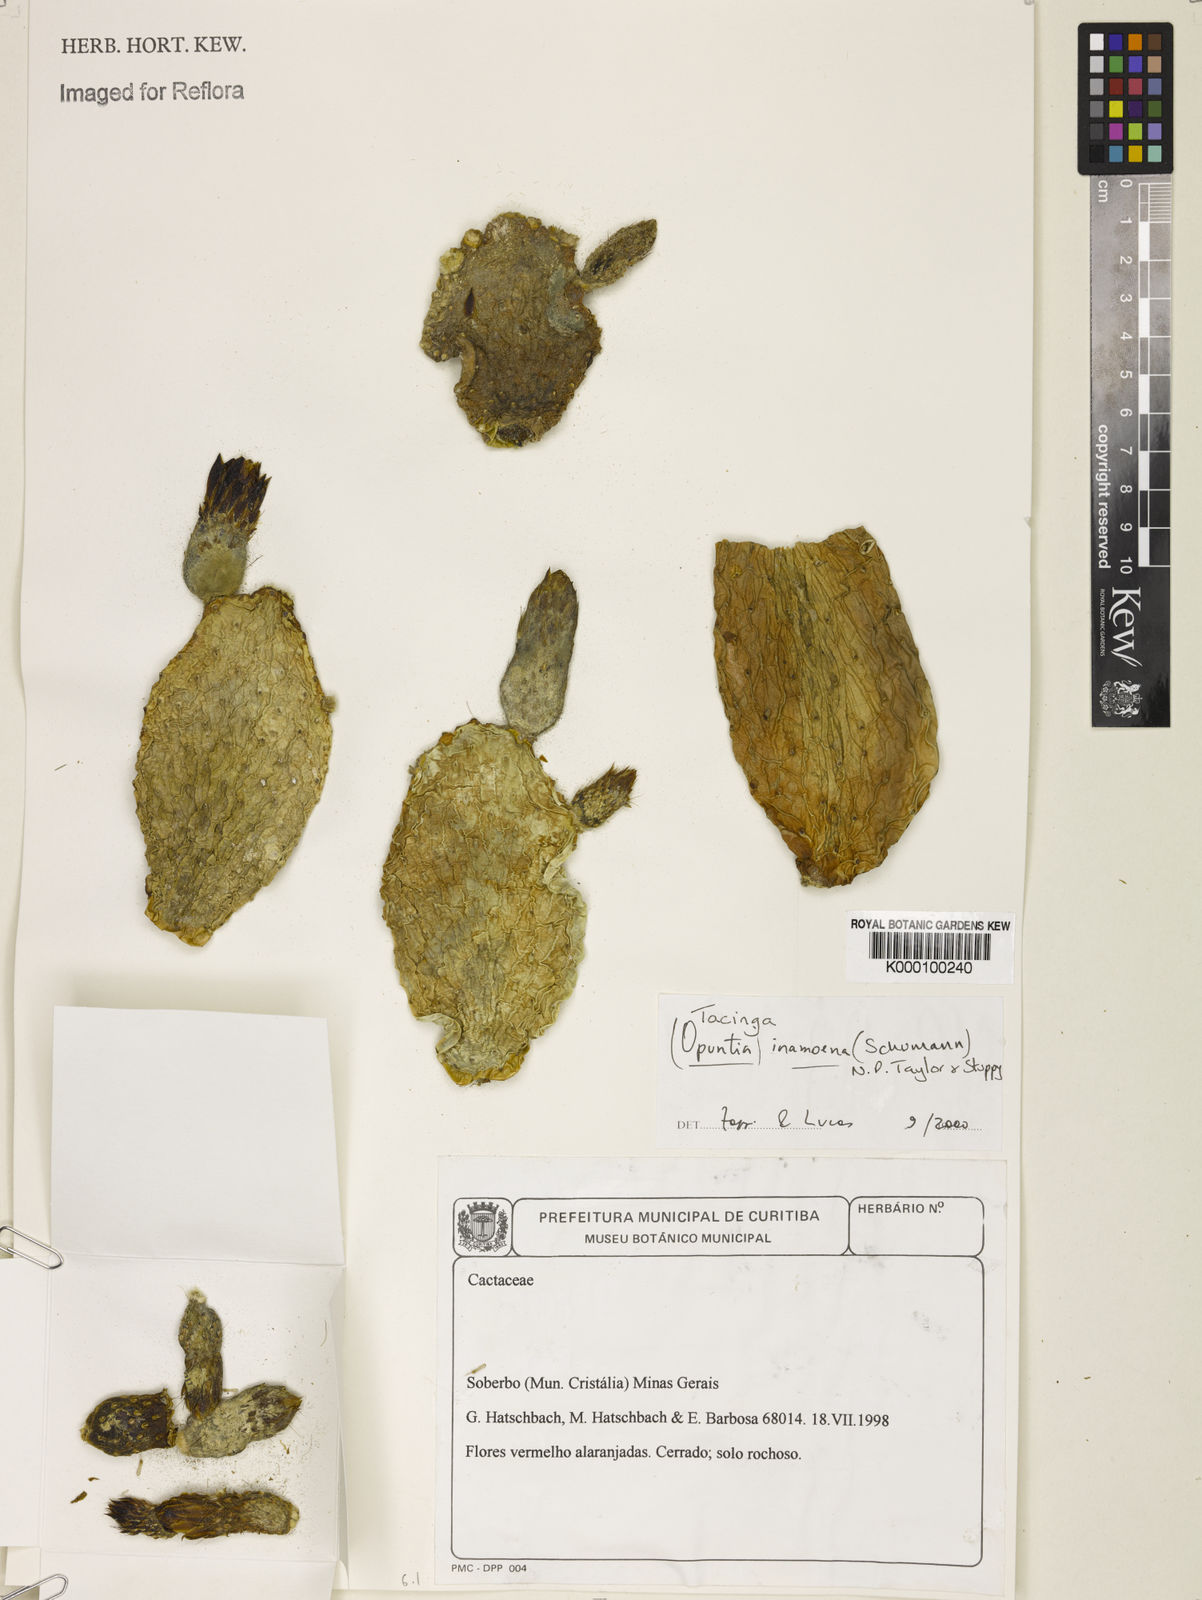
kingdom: Plantae
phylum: Tracheophyta
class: Magnoliopsida
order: Caryophyllales
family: Cactaceae
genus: Tacinga
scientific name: Tacinga inamoena
